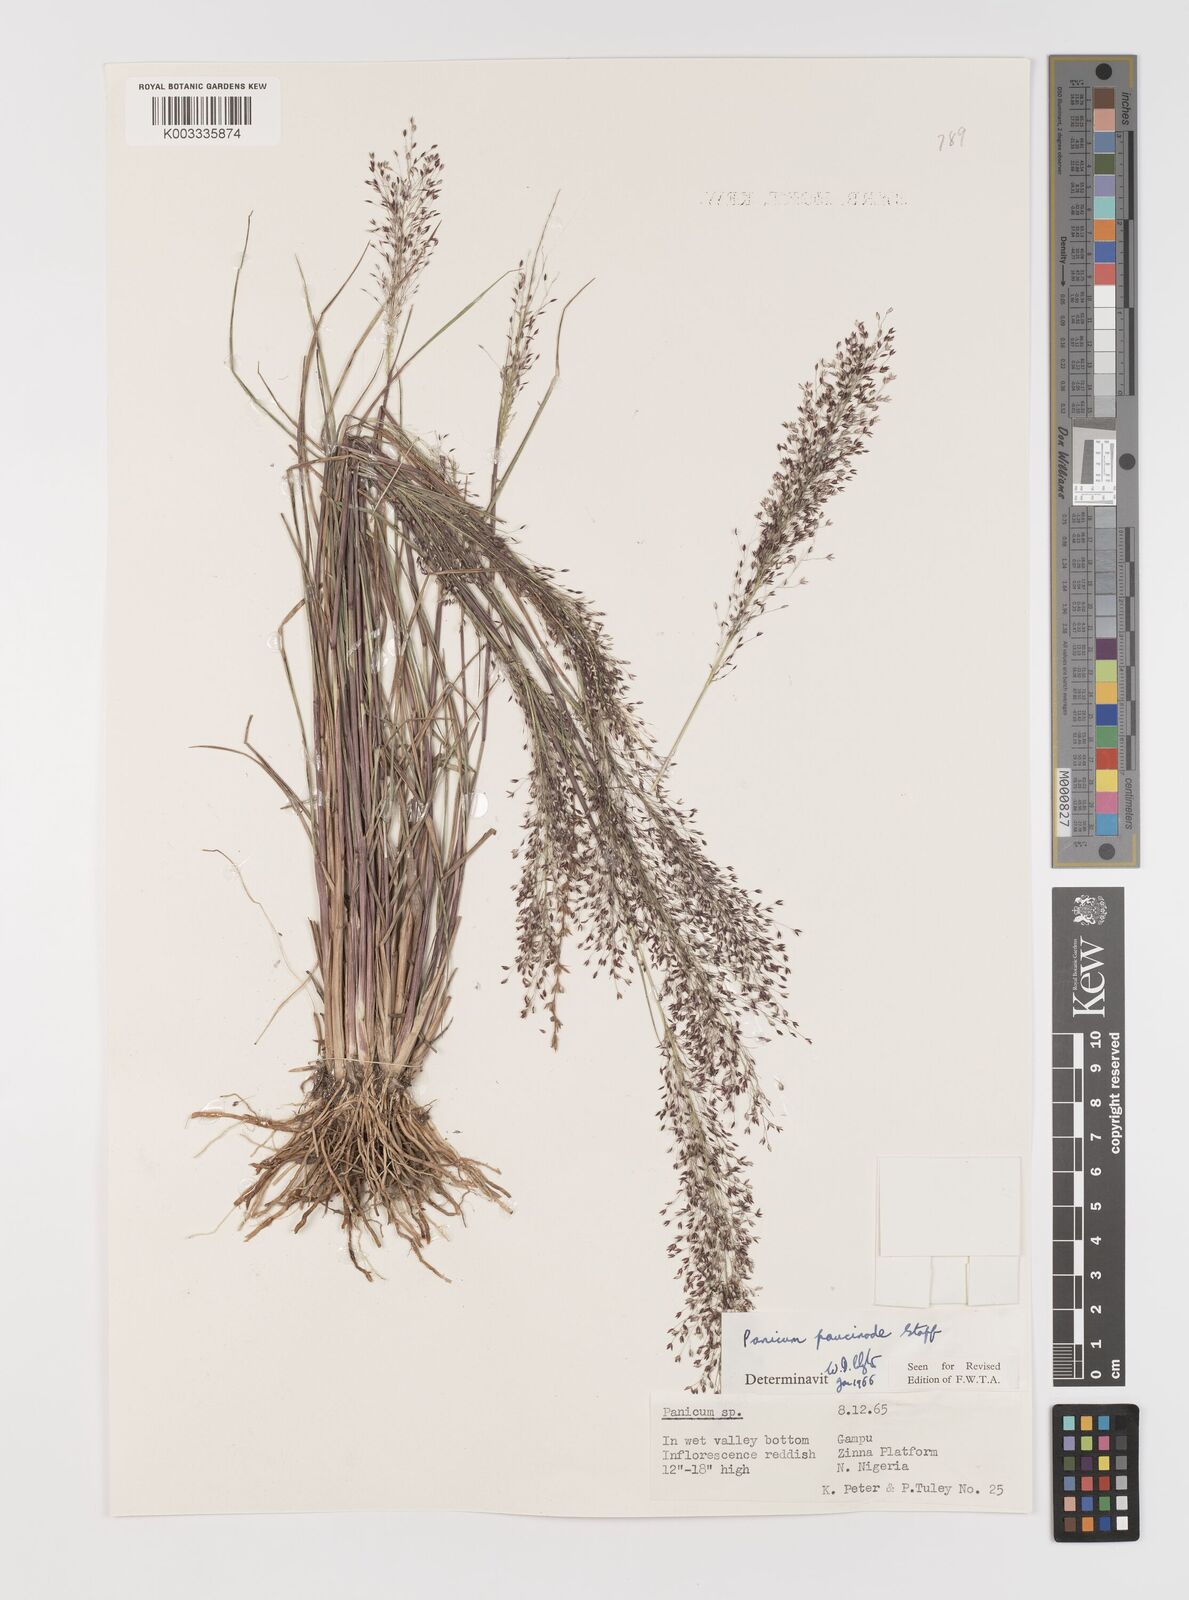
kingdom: Plantae
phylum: Tracheophyta
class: Liliopsida
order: Poales
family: Poaceae
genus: Panicum
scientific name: Panicum paucinode
